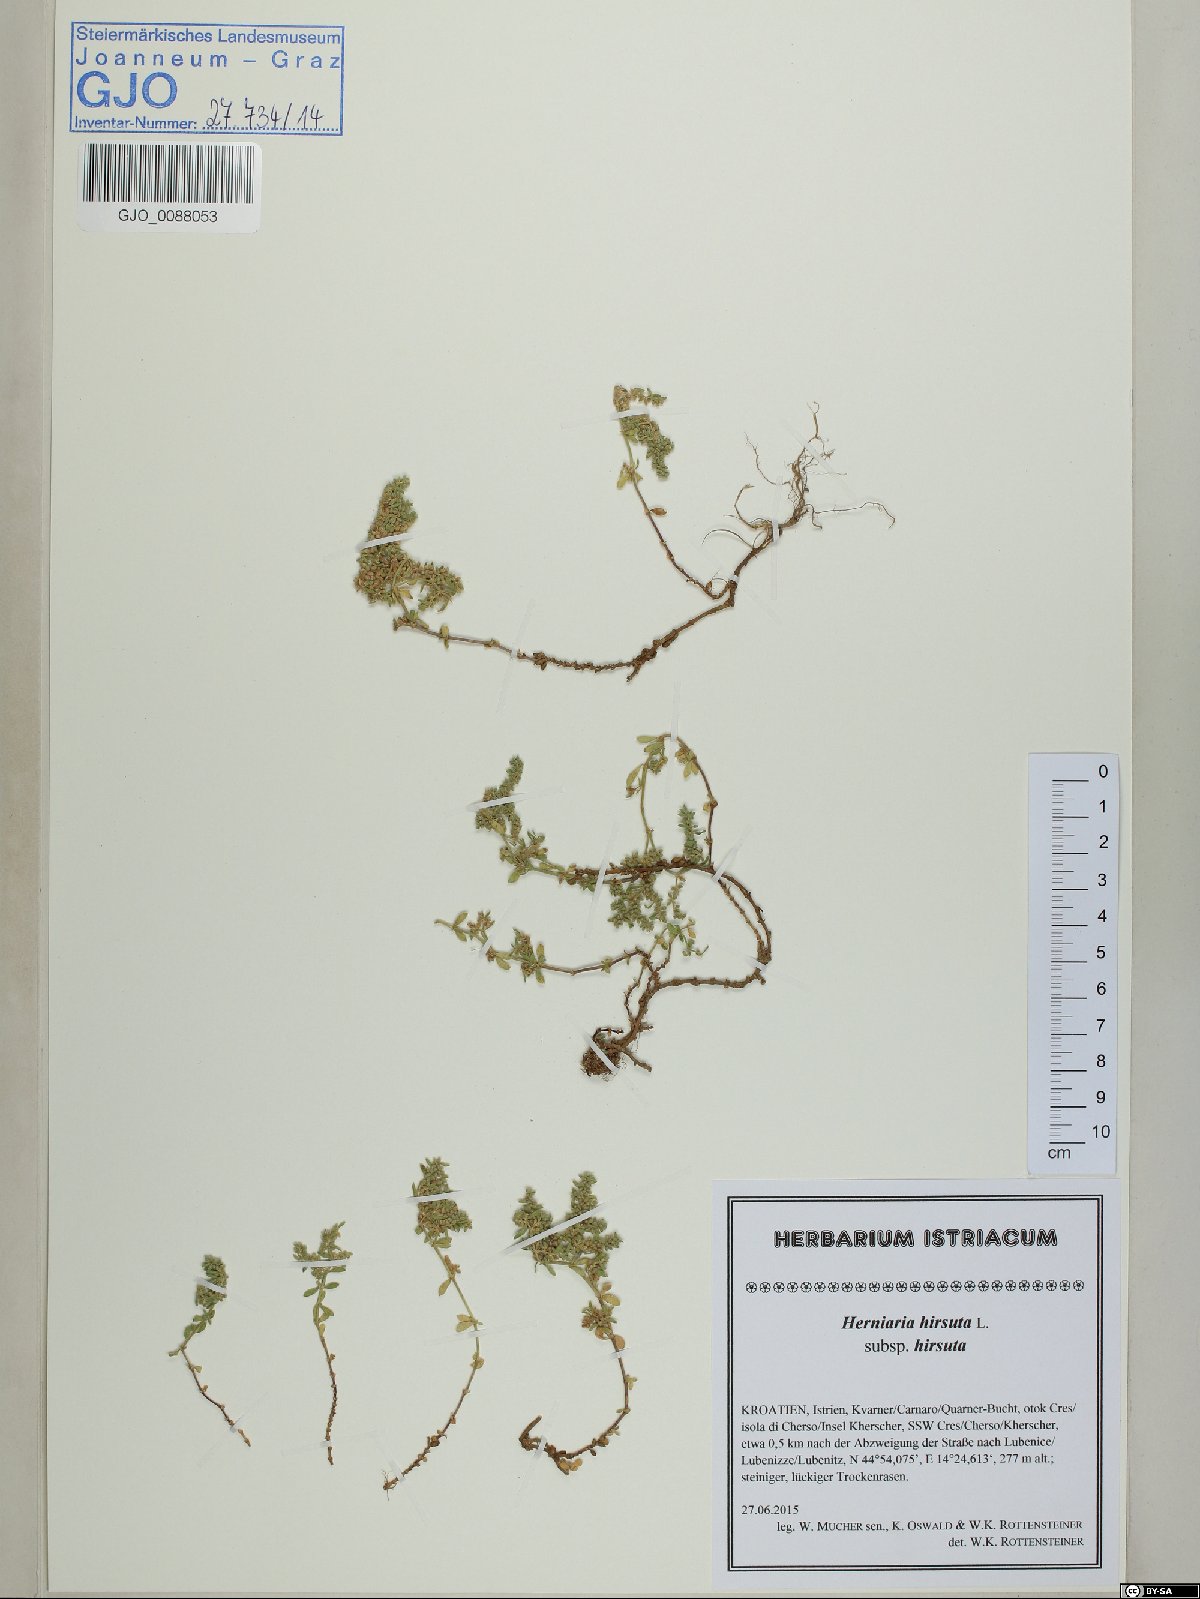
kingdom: Plantae
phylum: Tracheophyta
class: Magnoliopsida
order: Caryophyllales
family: Caryophyllaceae
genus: Herniaria
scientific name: Herniaria hirsuta
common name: Hairy rupturewort
